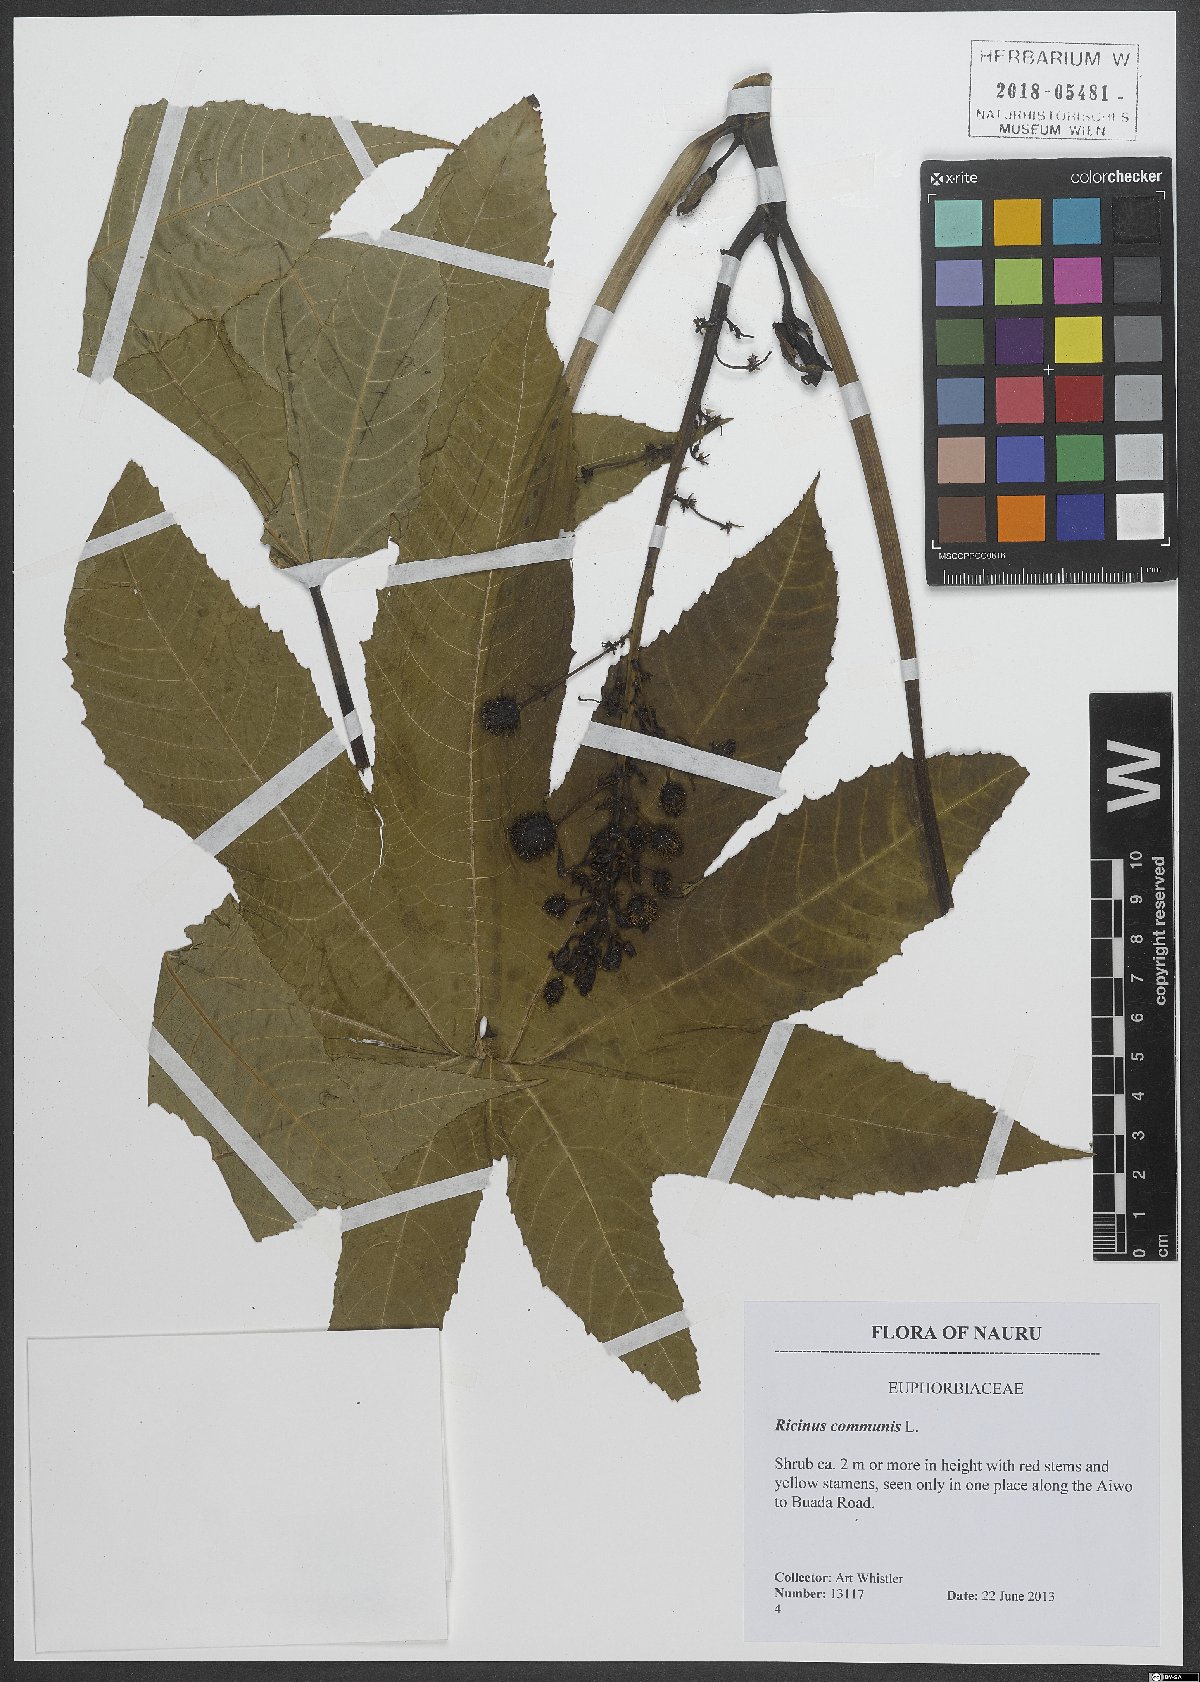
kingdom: Plantae
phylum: Tracheophyta
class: Magnoliopsida
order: Malpighiales
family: Euphorbiaceae
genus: Ricinus
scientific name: Ricinus communis
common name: Castor-oil-plant
